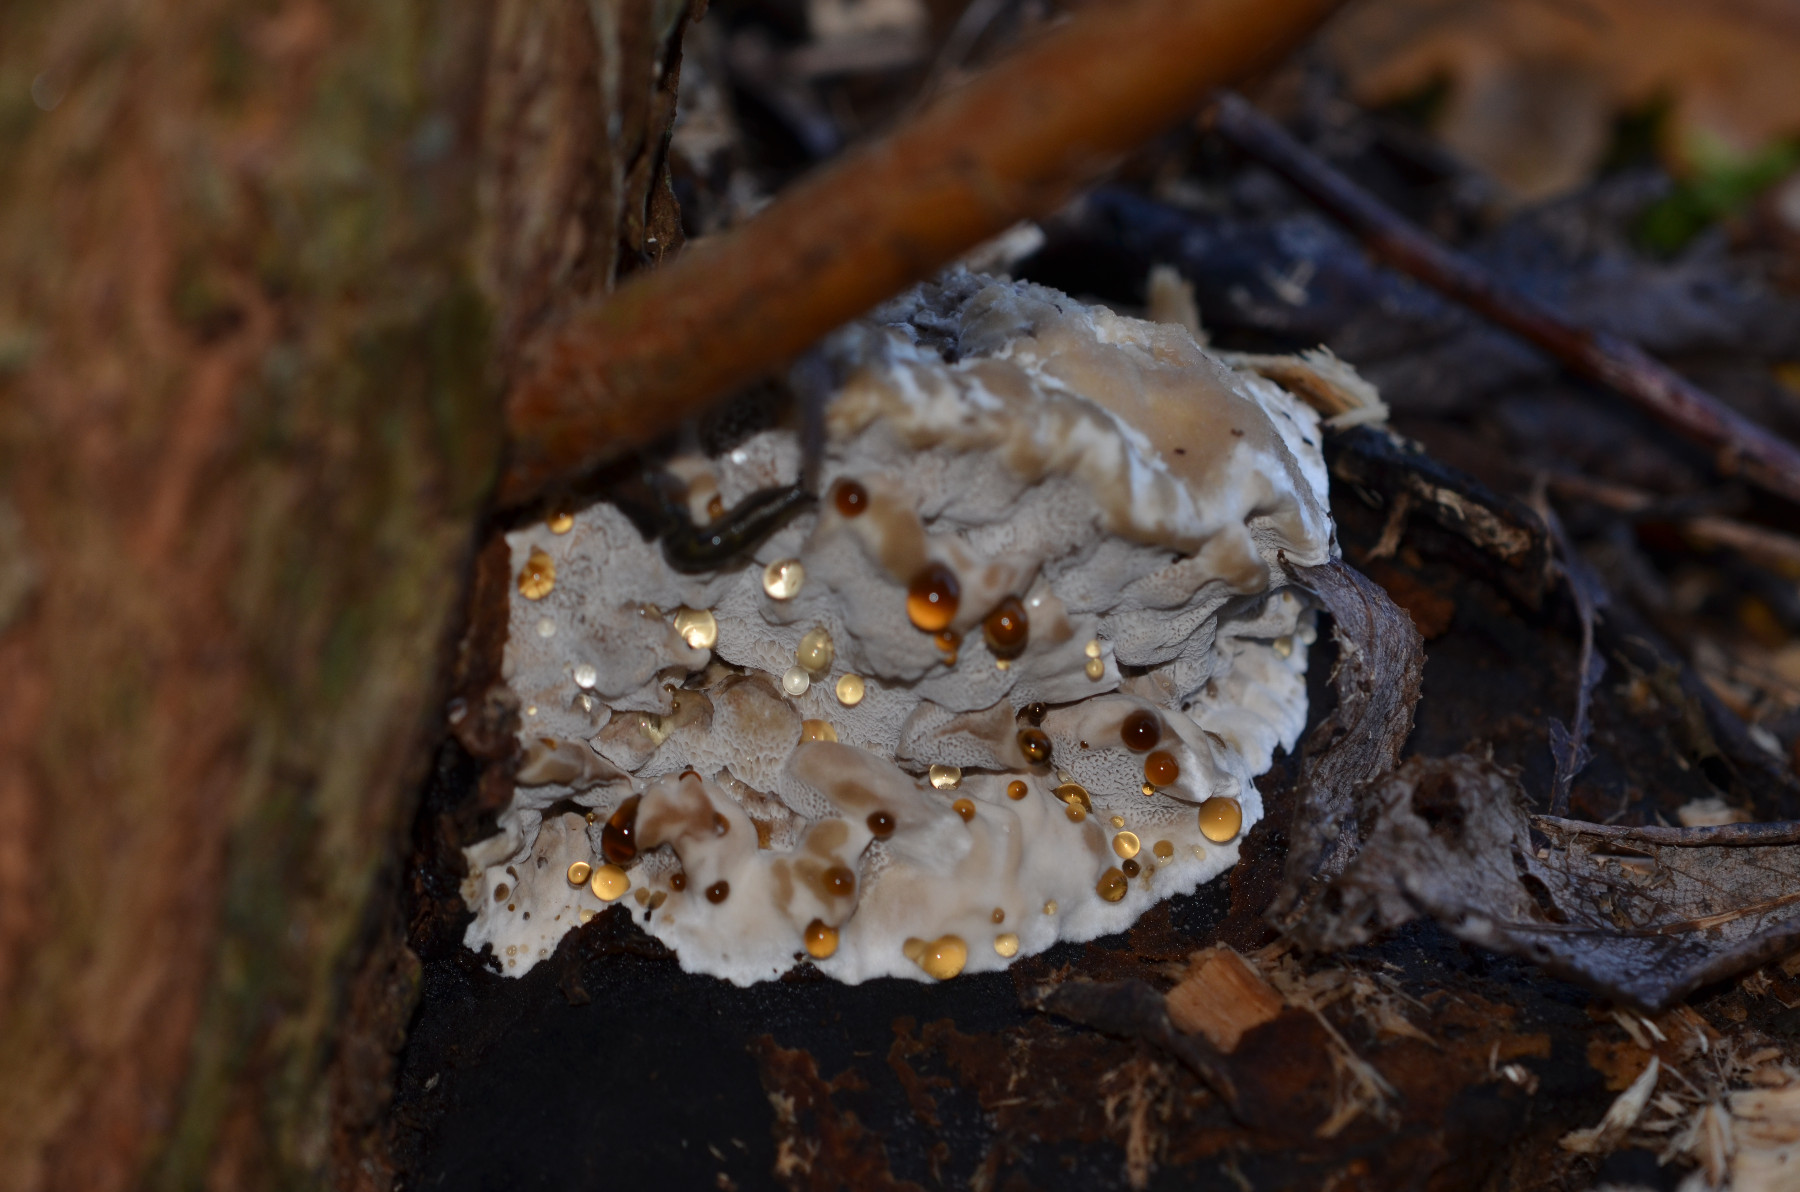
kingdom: Fungi
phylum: Basidiomycota
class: Agaricomycetes
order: Polyporales
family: Phanerochaetaceae
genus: Bjerkandera
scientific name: Bjerkandera fumosa
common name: grågul sodporesvamp
